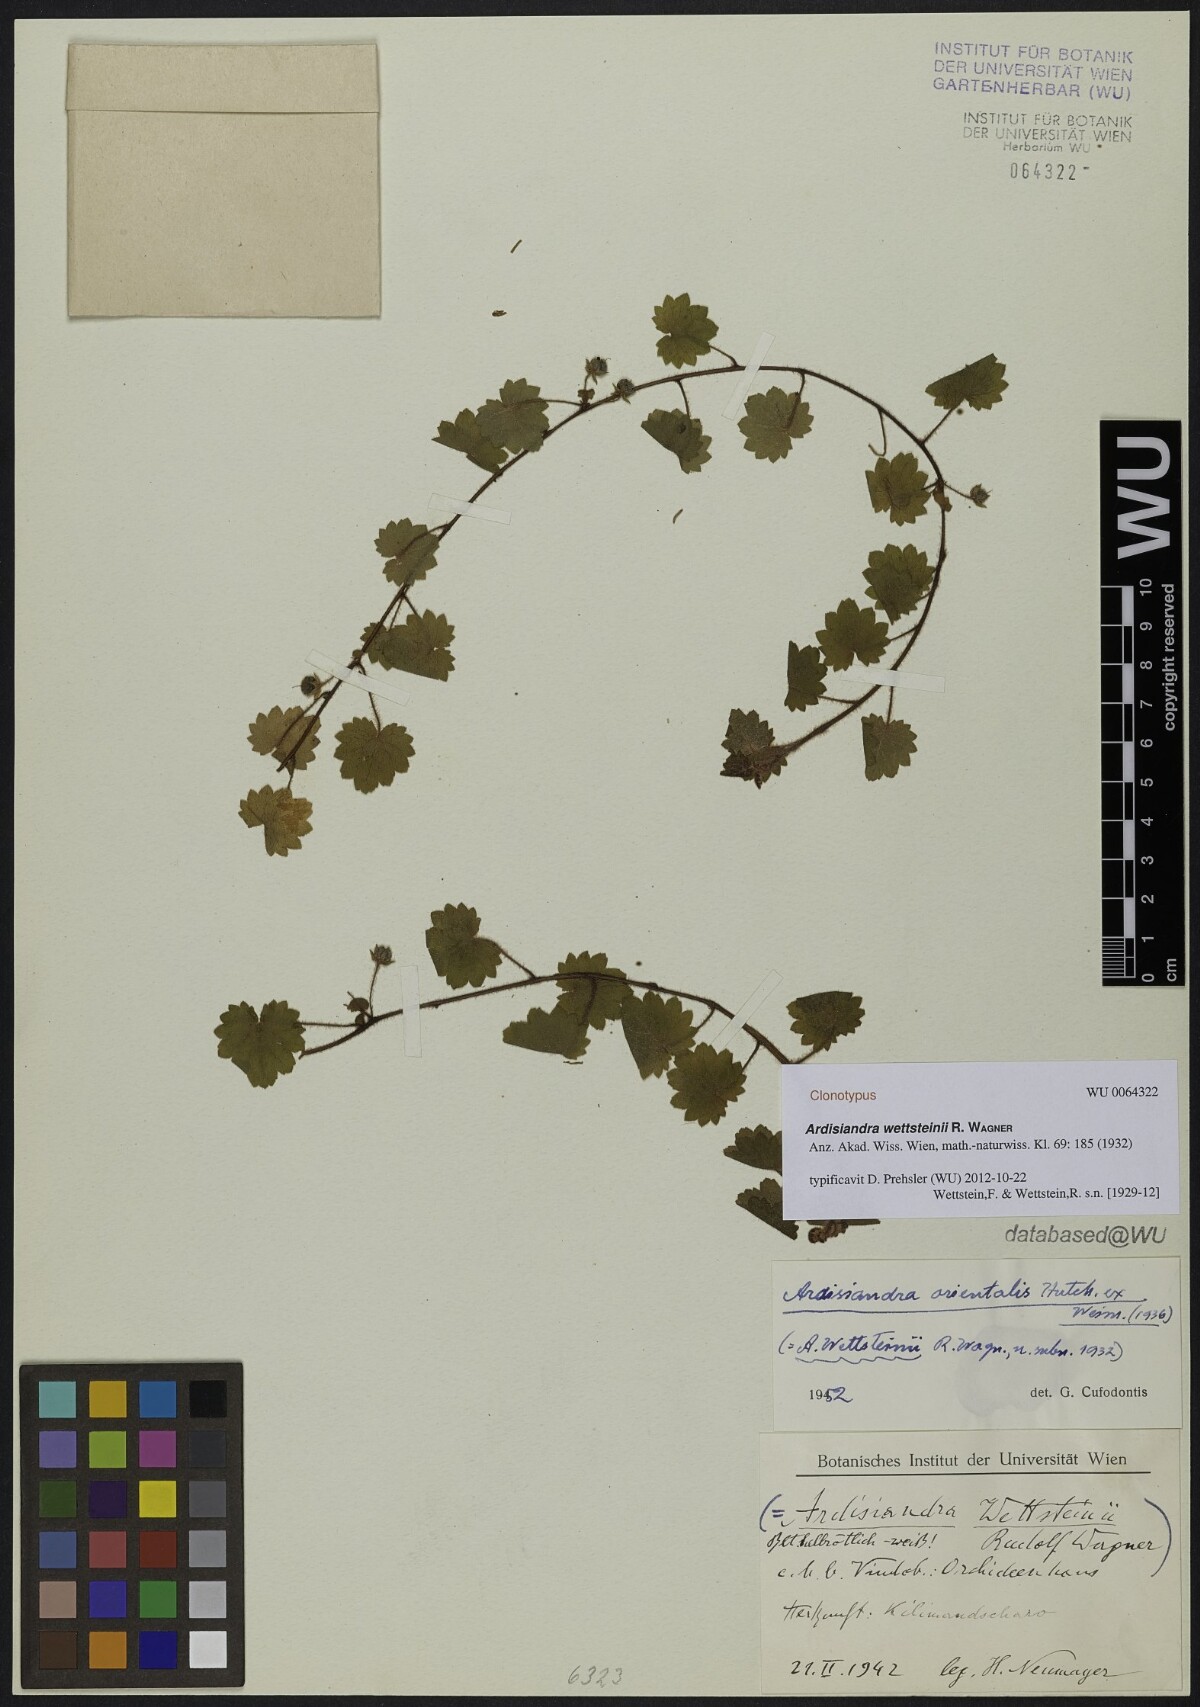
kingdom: Plantae
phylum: Tracheophyta
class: Magnoliopsida
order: Ericales
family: Primulaceae
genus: Ardisiandra
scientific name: Ardisiandra wettsteinii
